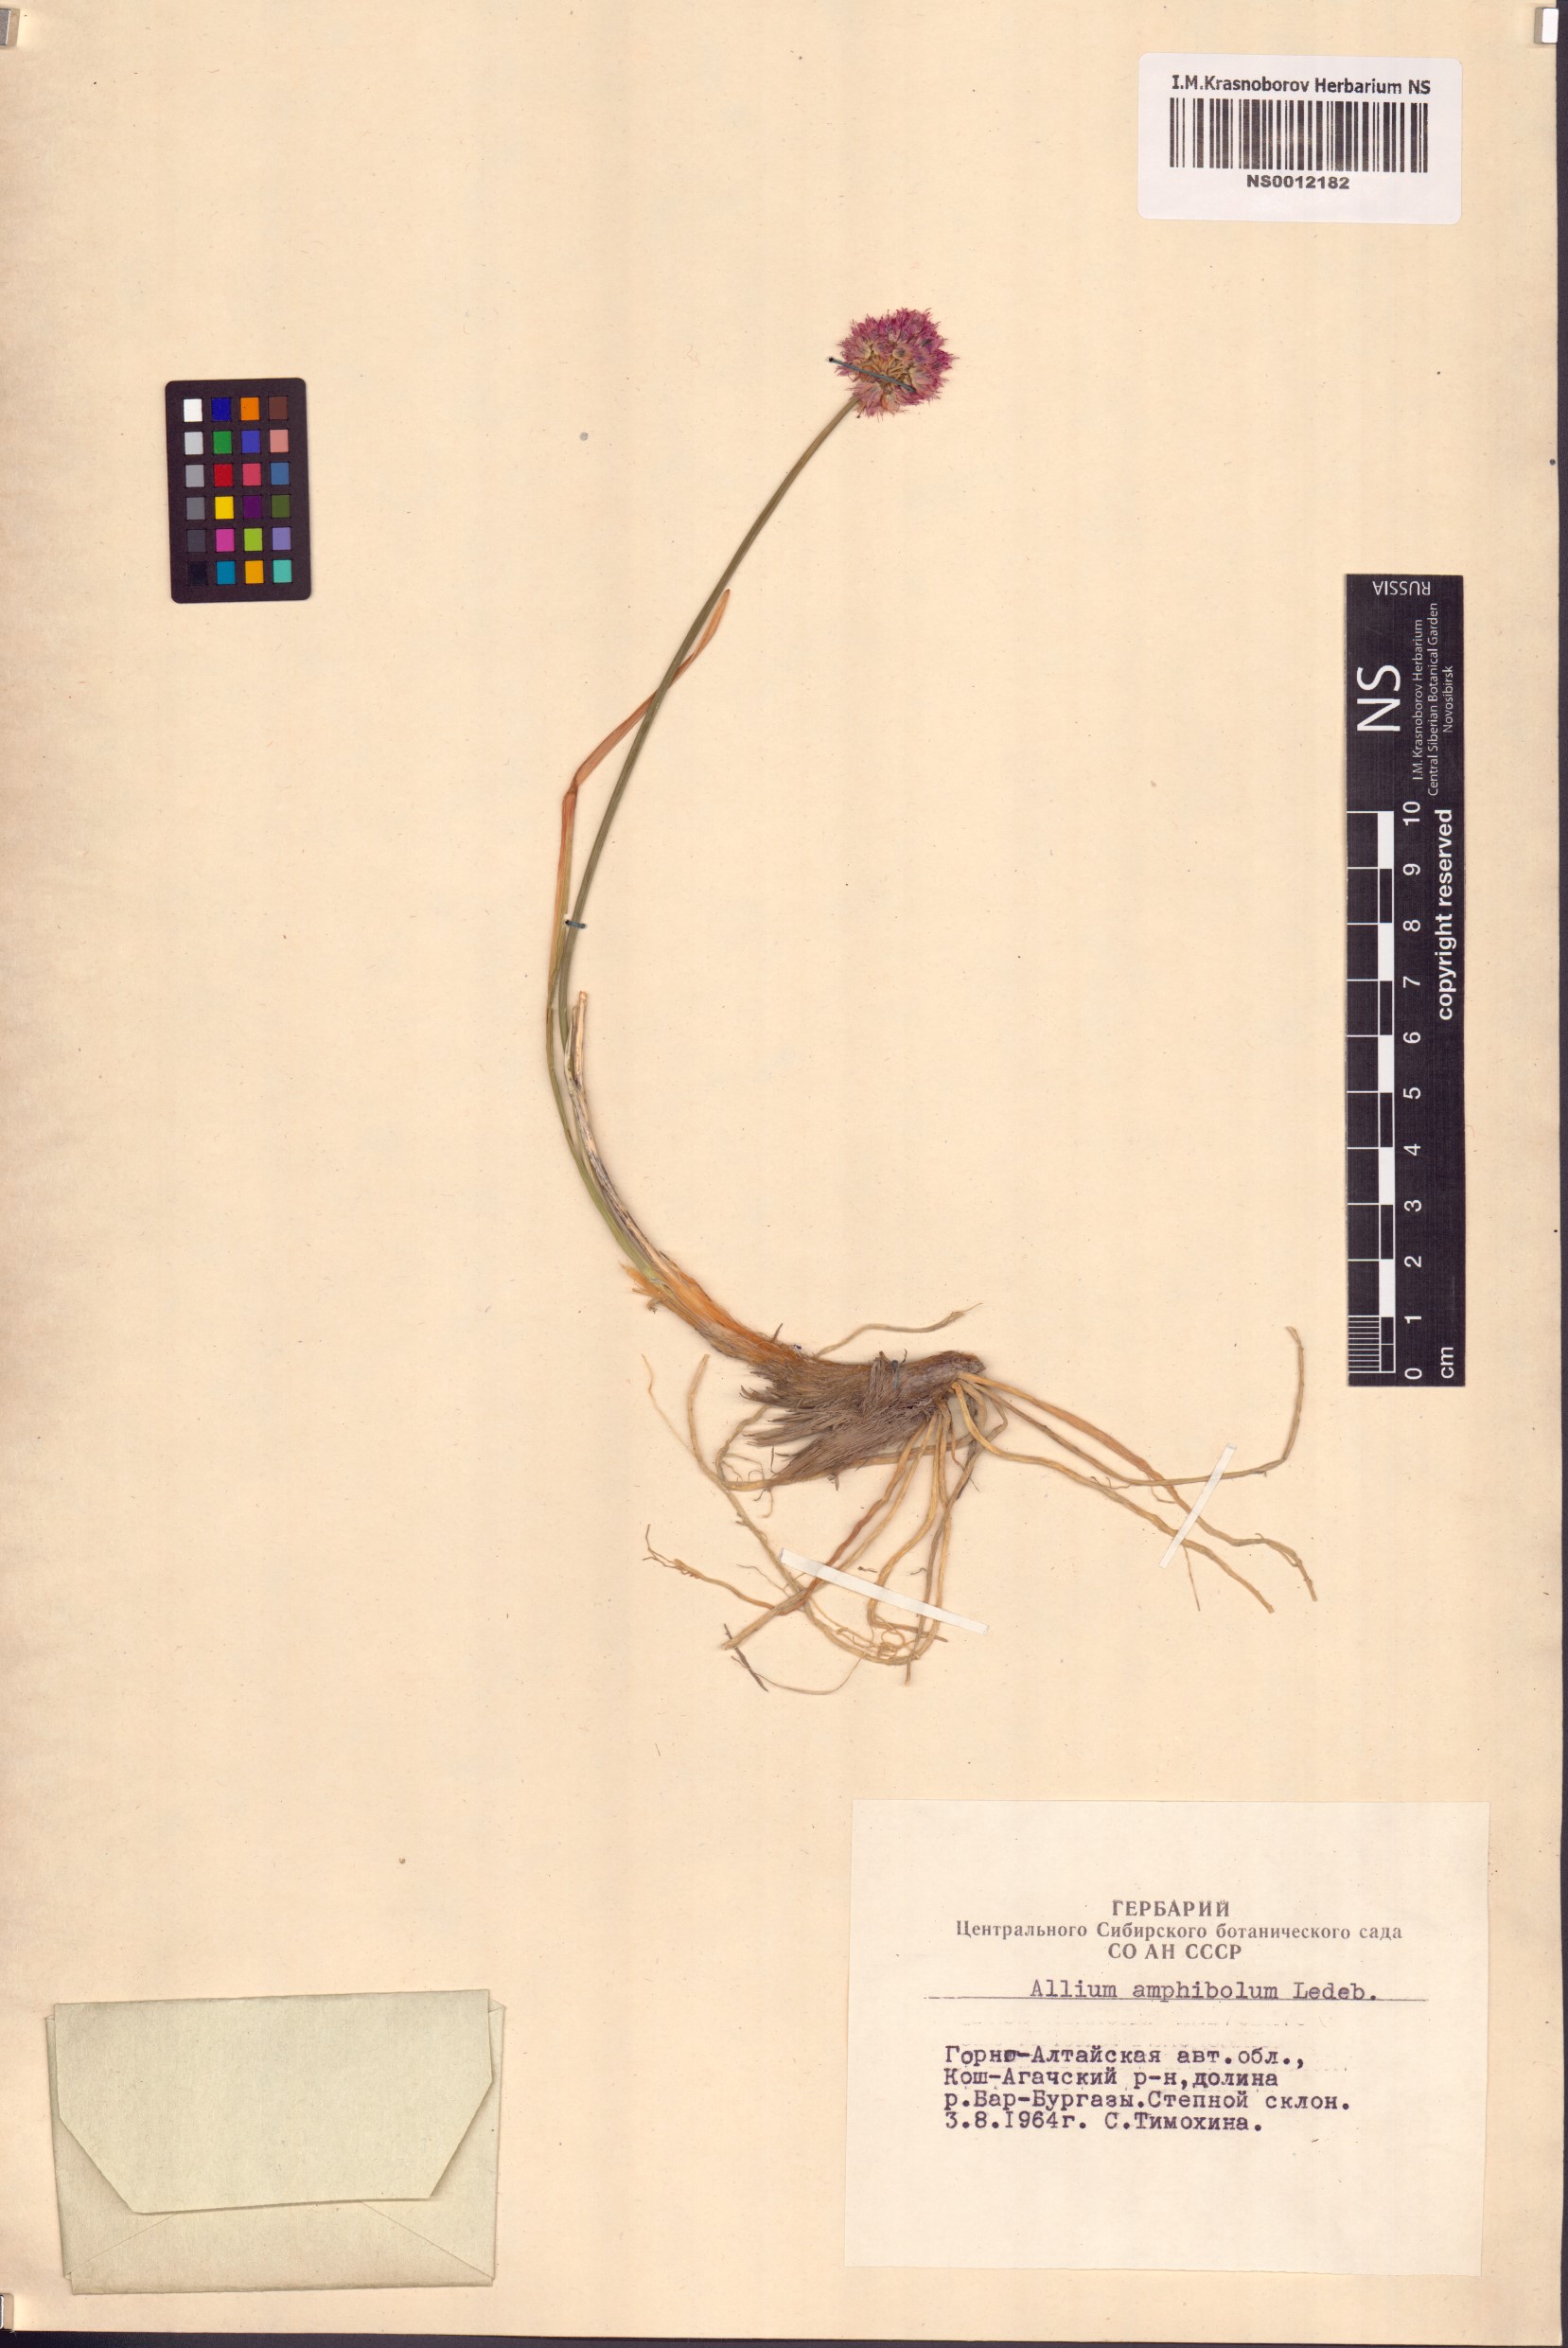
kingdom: Plantae
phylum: Tracheophyta
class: Liliopsida
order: Asparagales
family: Amaryllidaceae
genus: Allium
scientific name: Allium amphibolum
